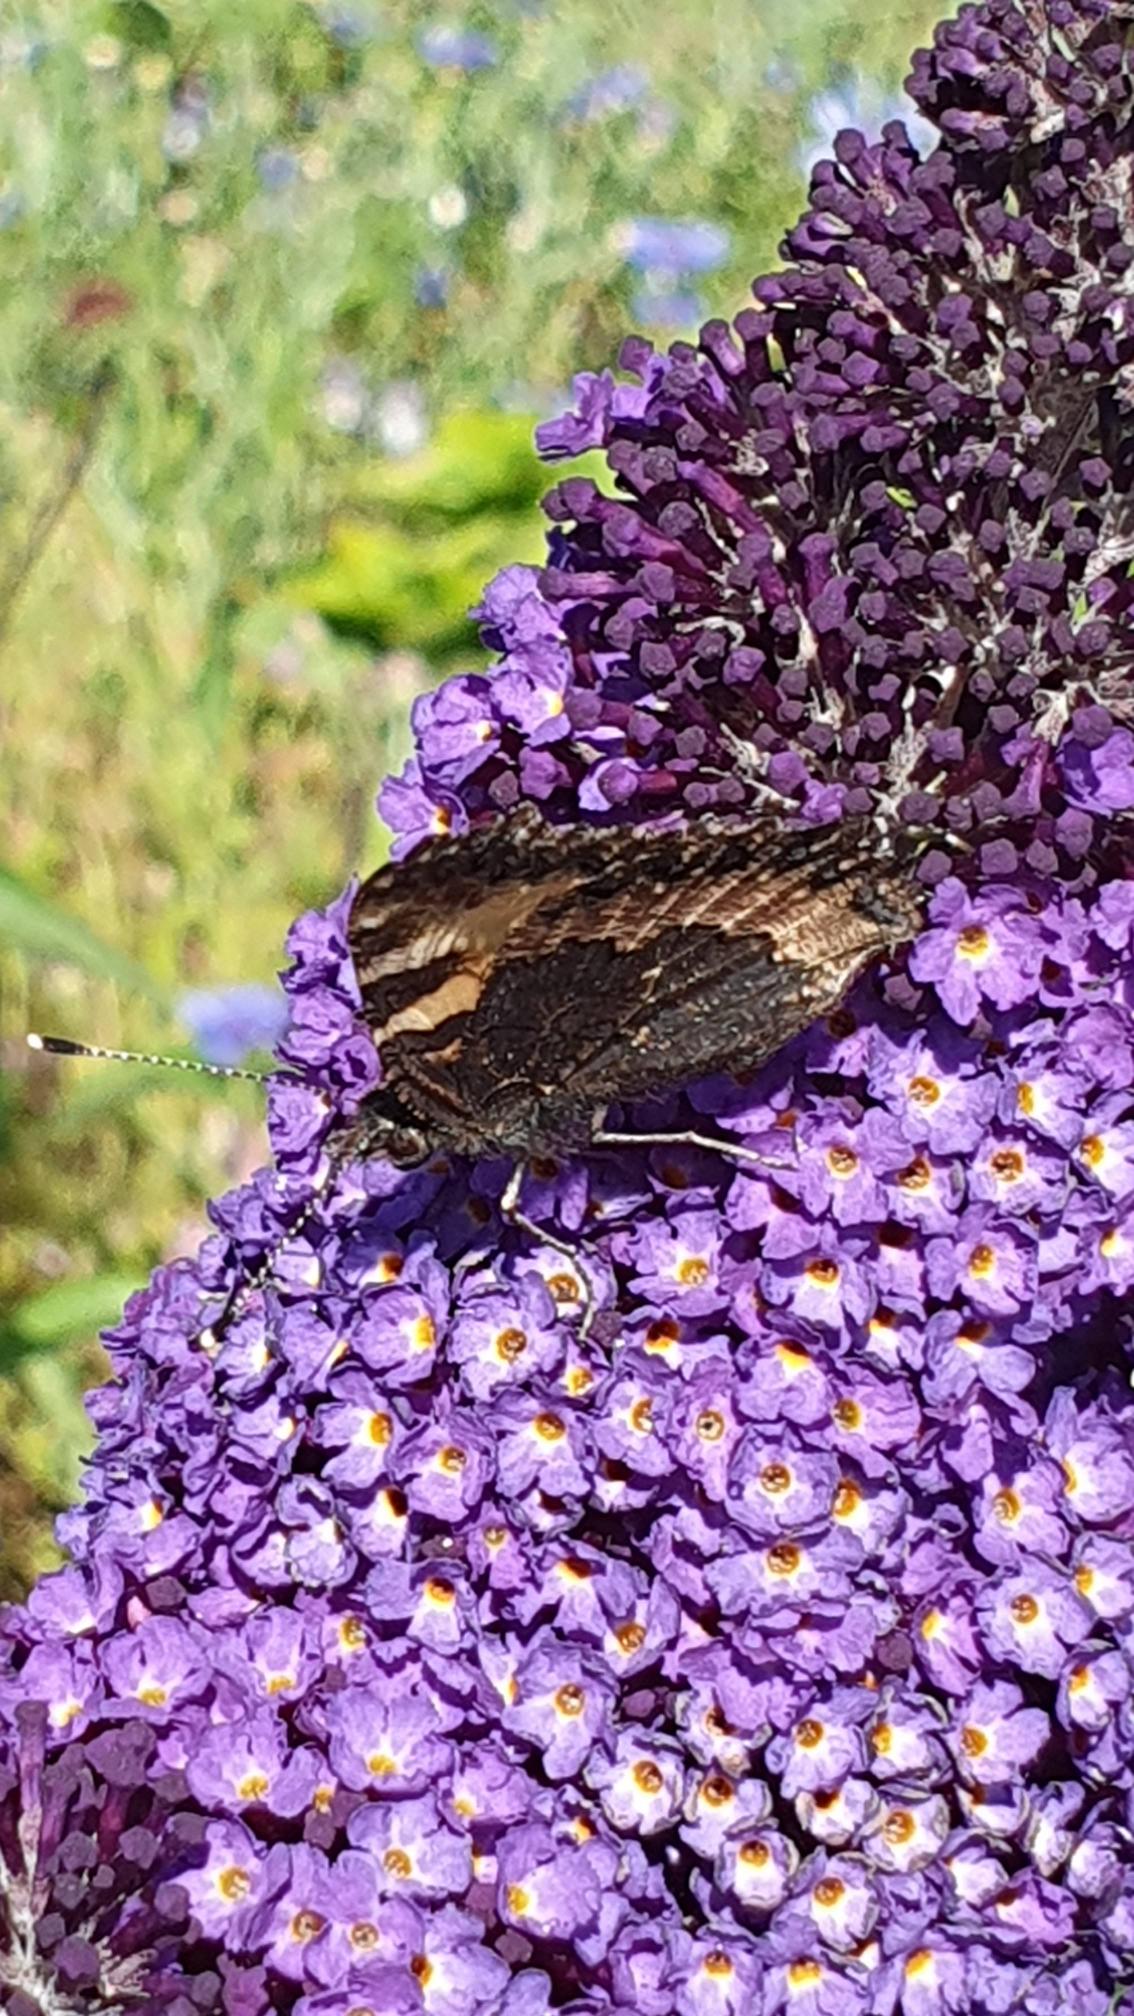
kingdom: Animalia
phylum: Arthropoda
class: Insecta
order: Lepidoptera
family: Nymphalidae
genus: Aglais
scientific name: Aglais urticae
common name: Nældens takvinge
